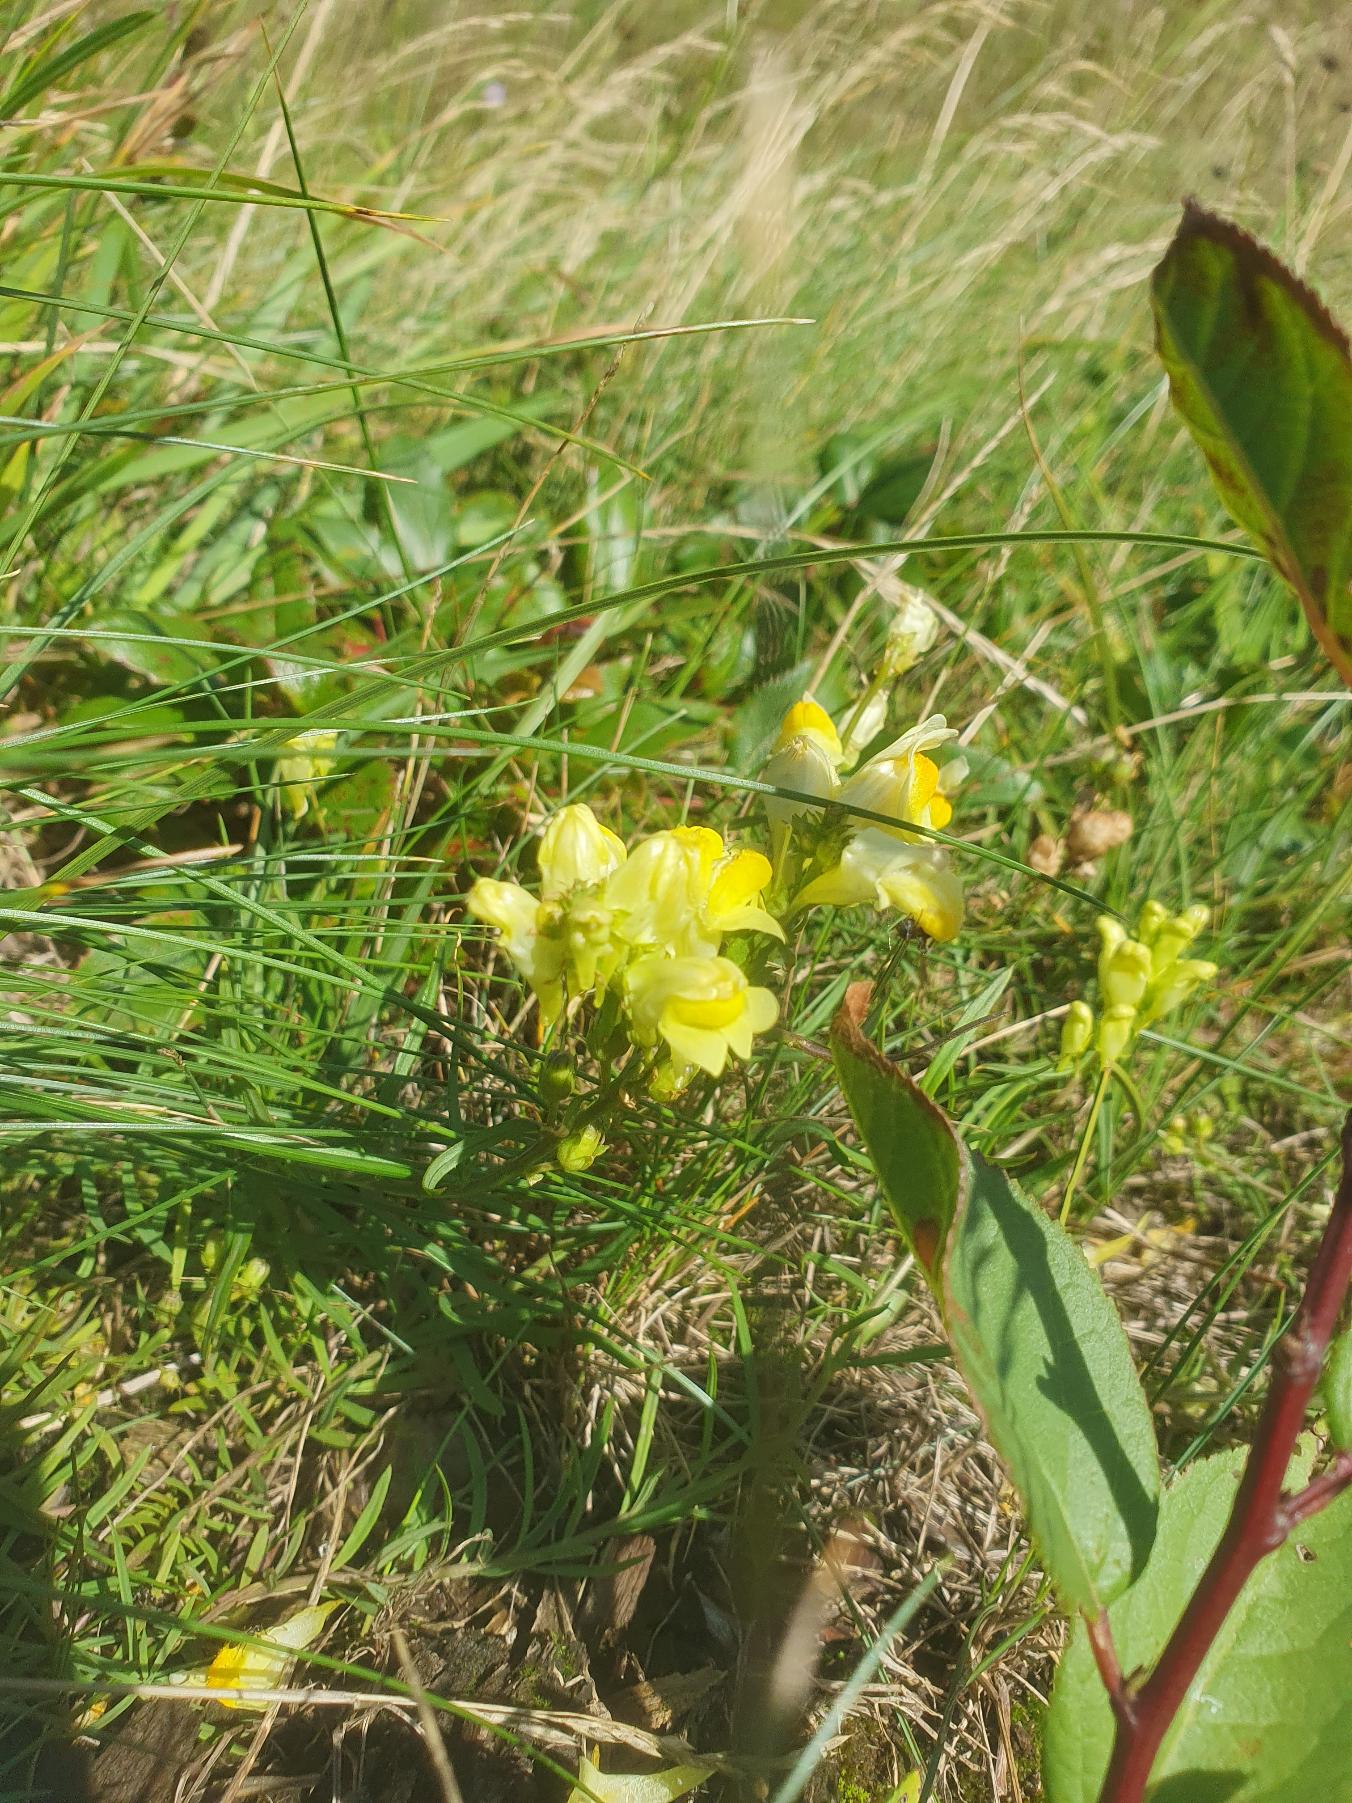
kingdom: Plantae
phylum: Tracheophyta
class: Magnoliopsida
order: Lamiales
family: Plantaginaceae
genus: Linaria
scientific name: Linaria vulgaris
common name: Almindelig torskemund
